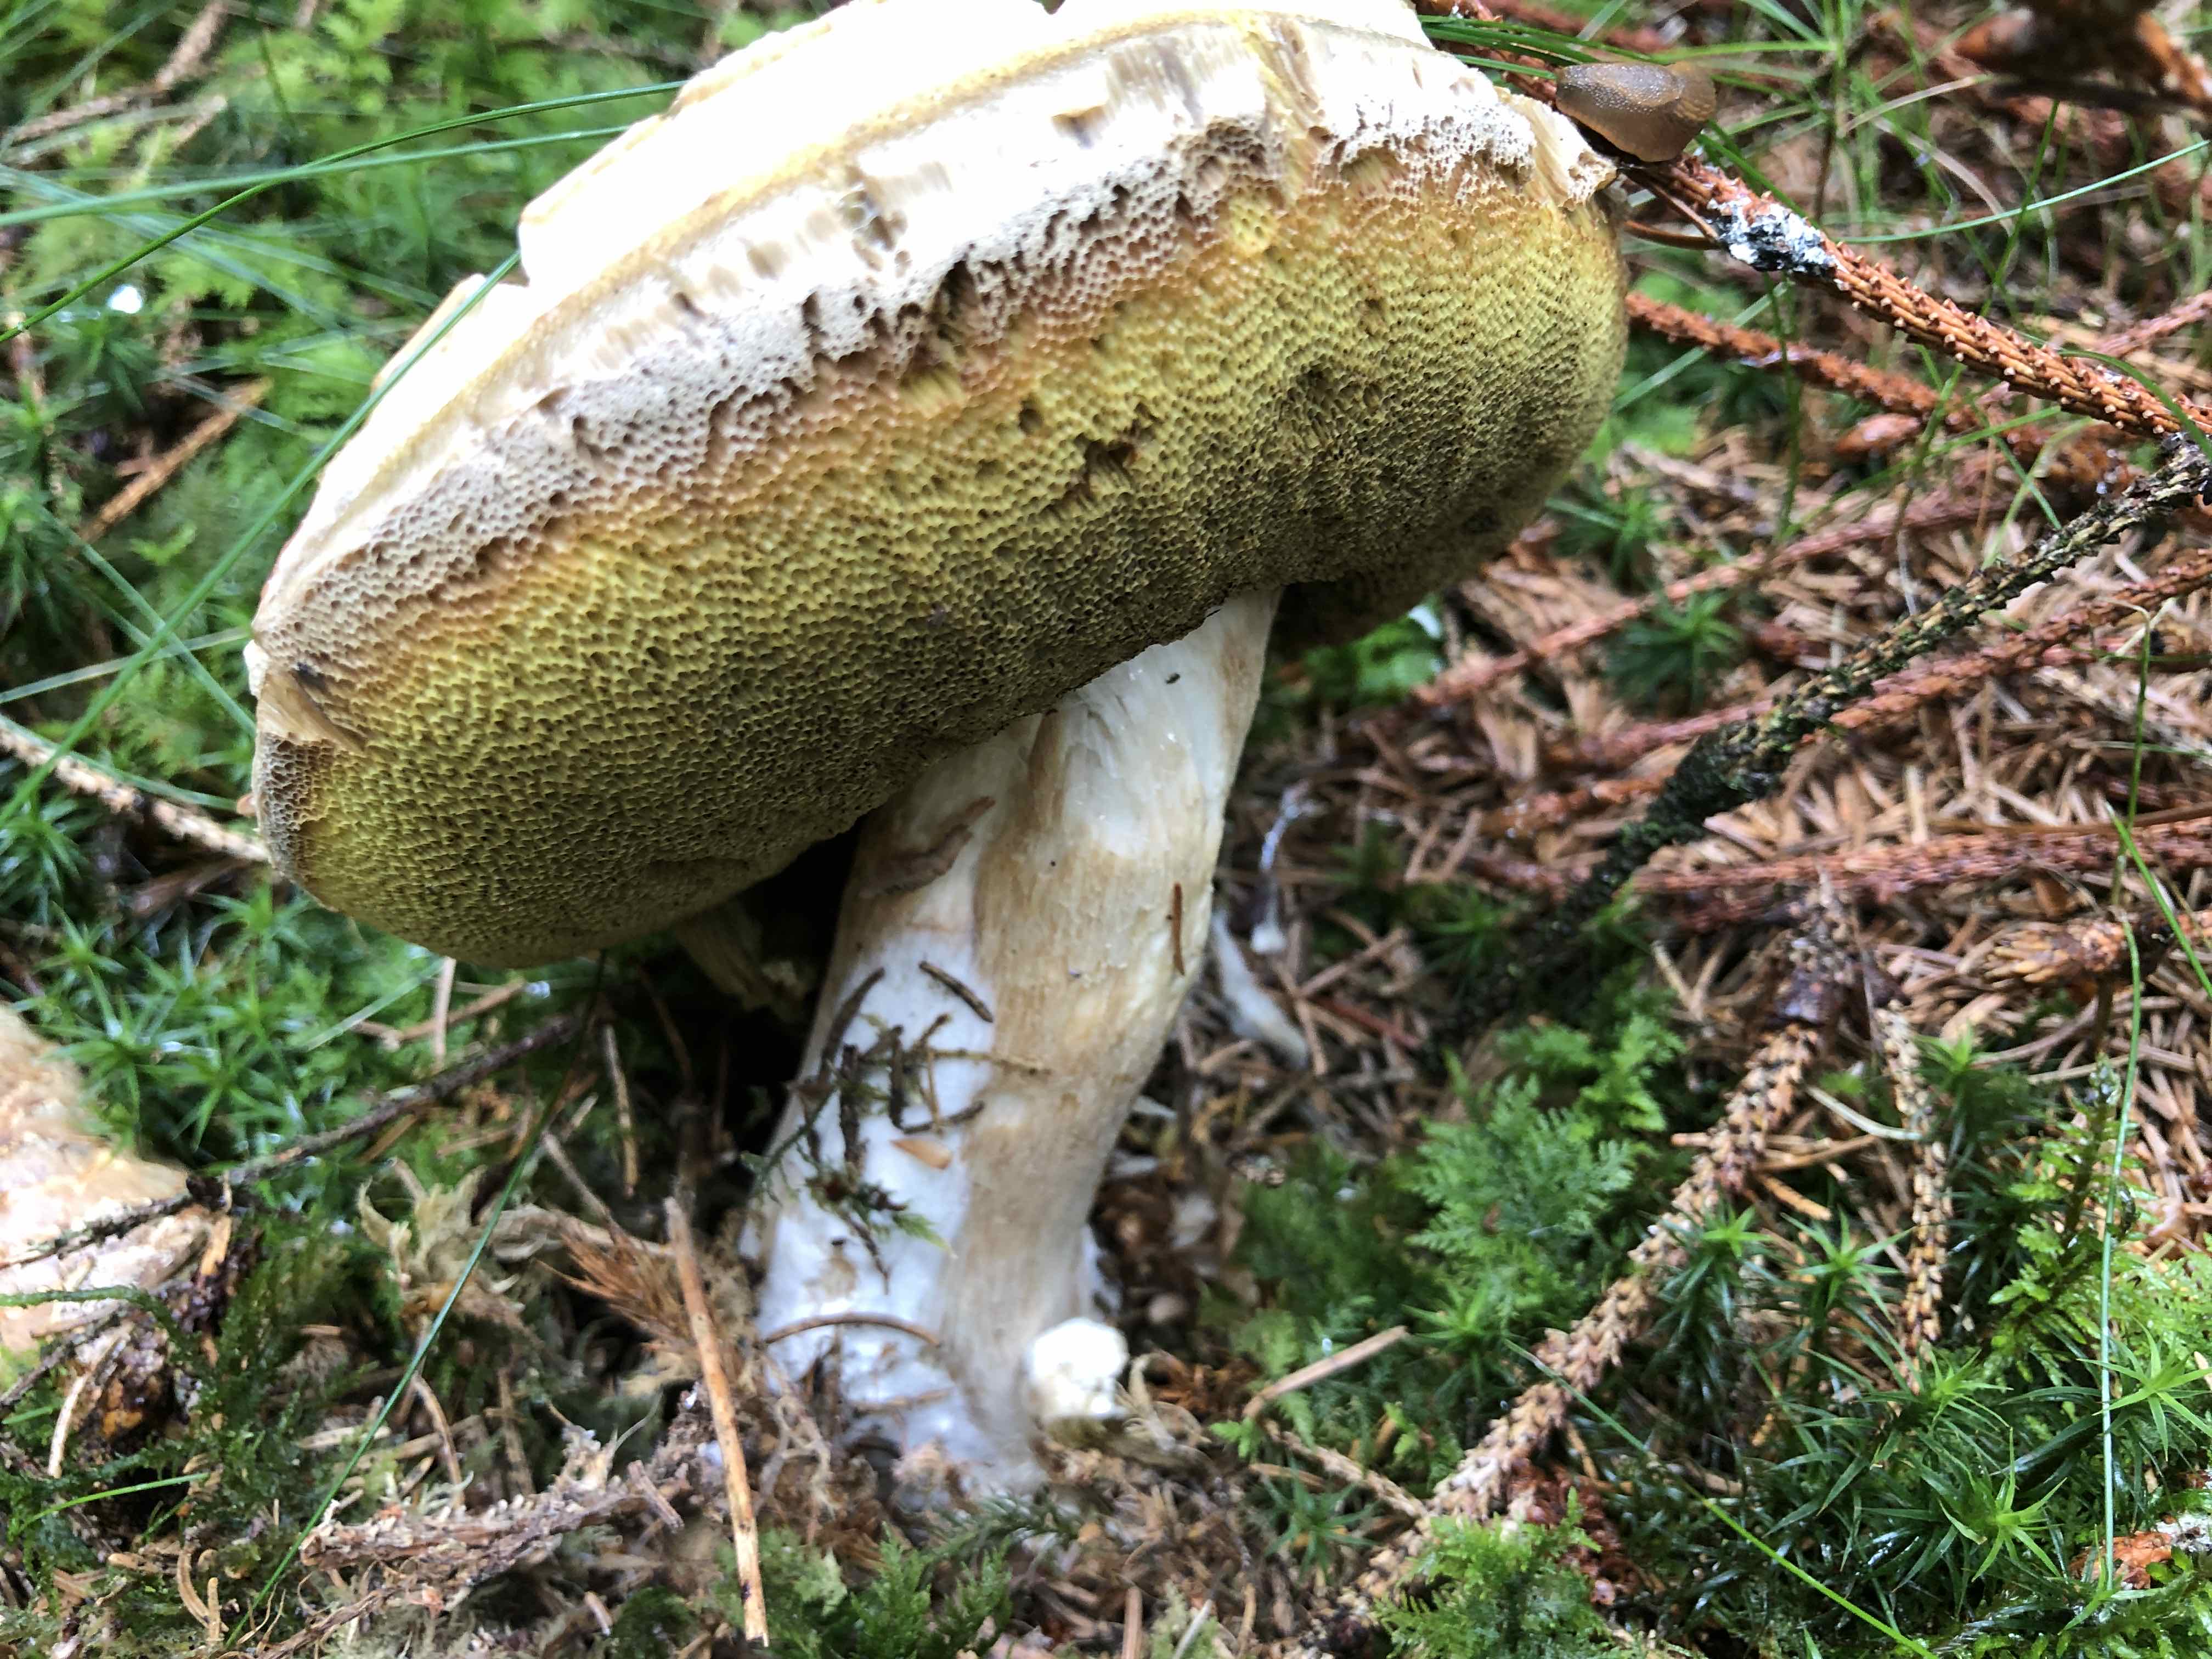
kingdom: Fungi
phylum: Basidiomycota
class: Agaricomycetes
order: Boletales
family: Boletaceae
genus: Boletus
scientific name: Boletus edulis
